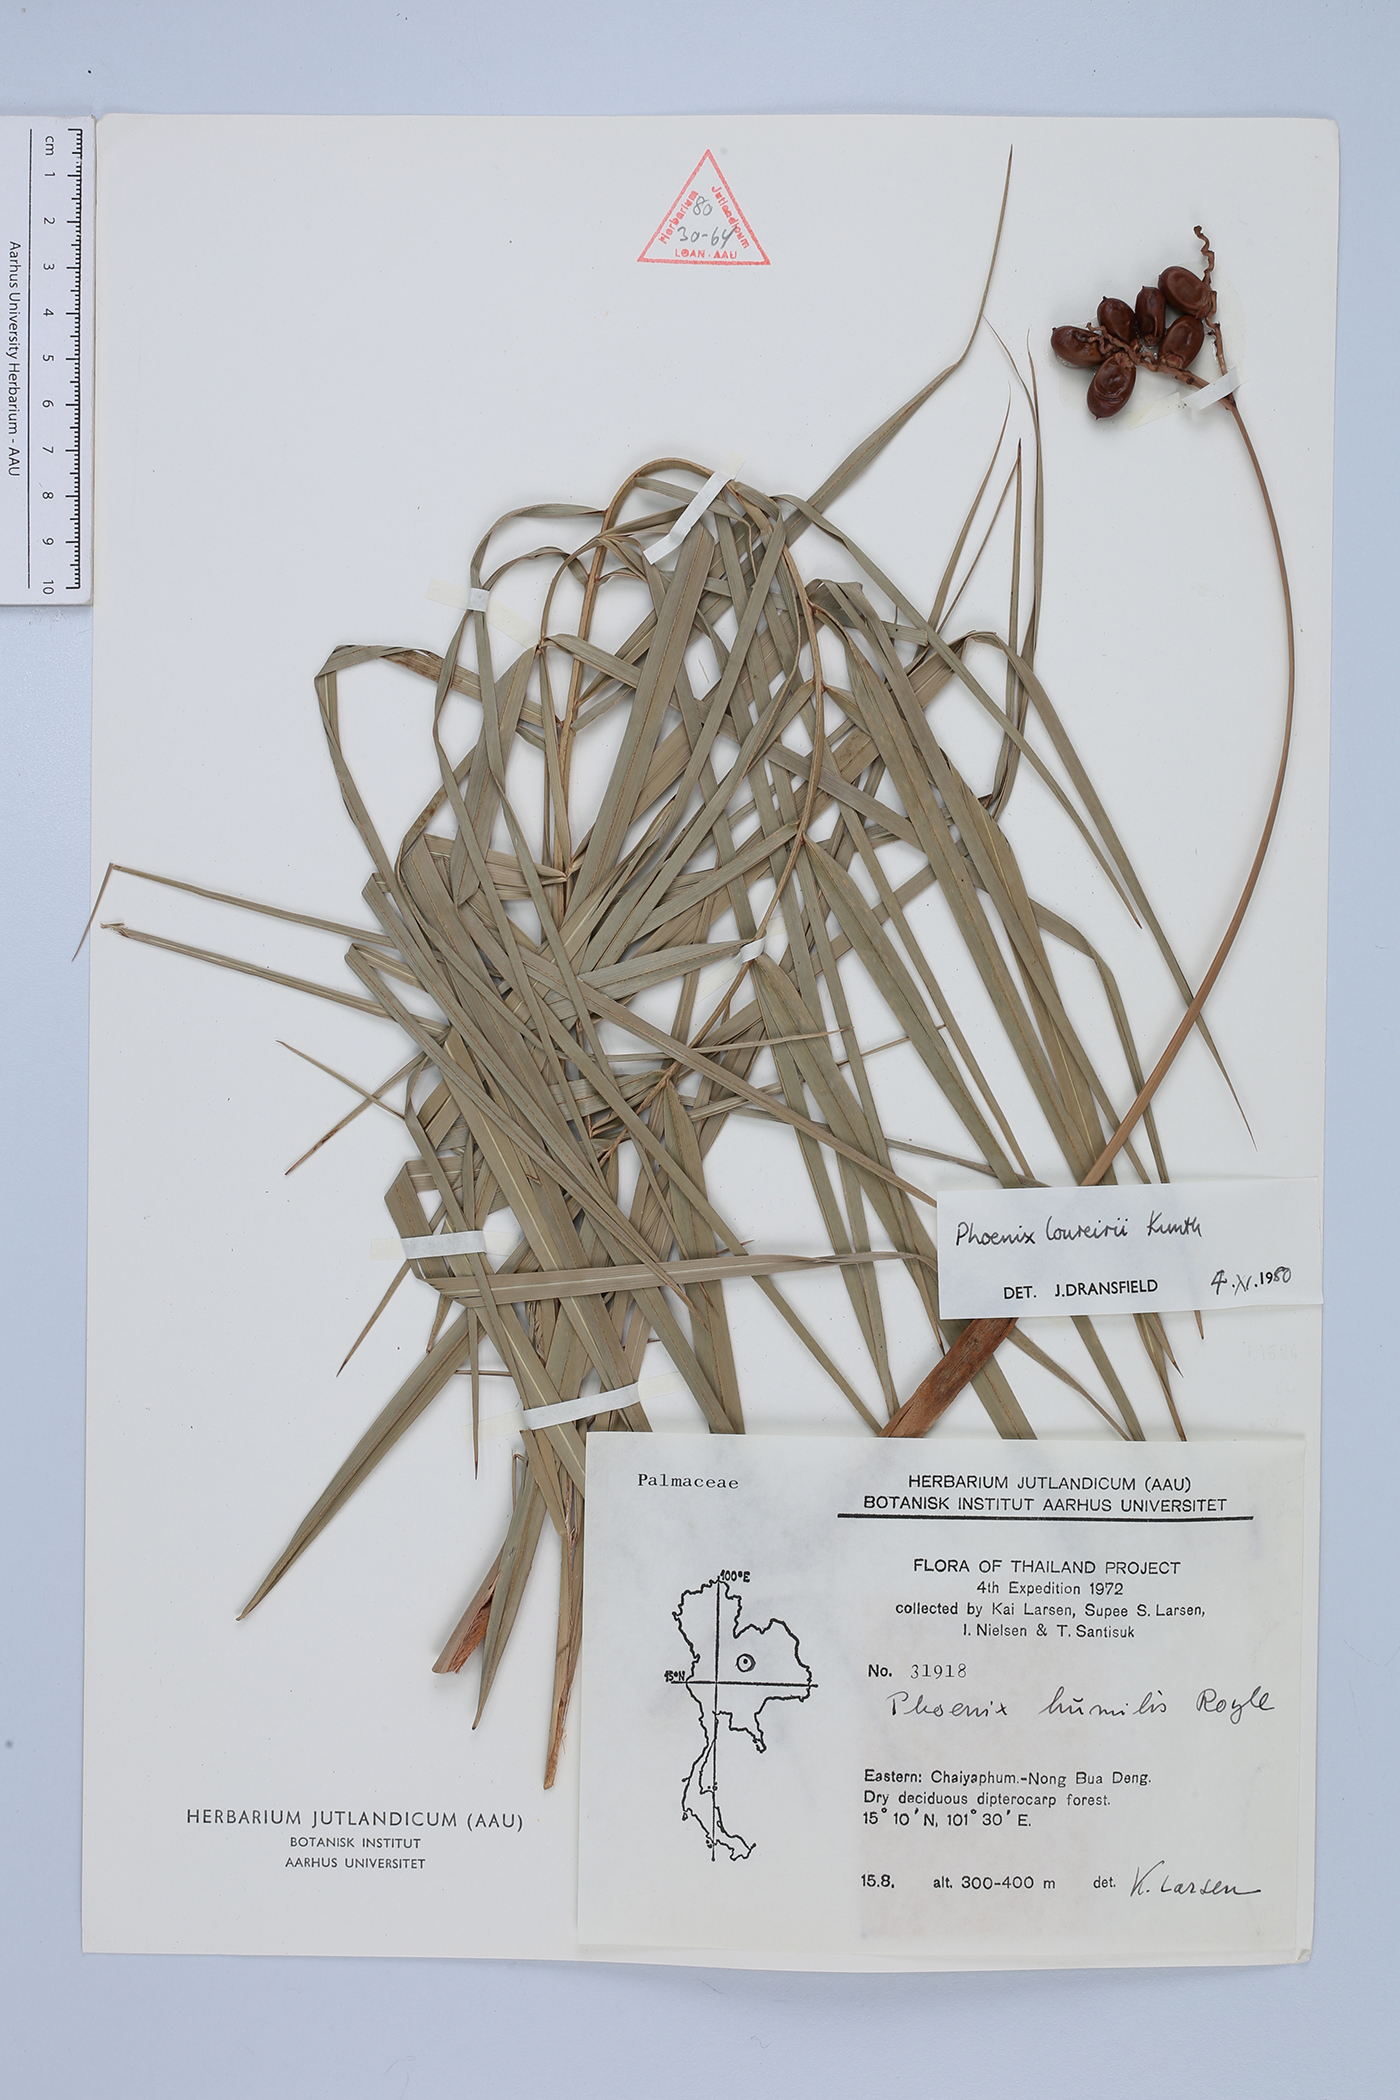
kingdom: Plantae
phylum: Tracheophyta
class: Liliopsida
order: Arecales
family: Arecaceae
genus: Phoenix
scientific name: Phoenix loureiroi
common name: Loureiro's palm
